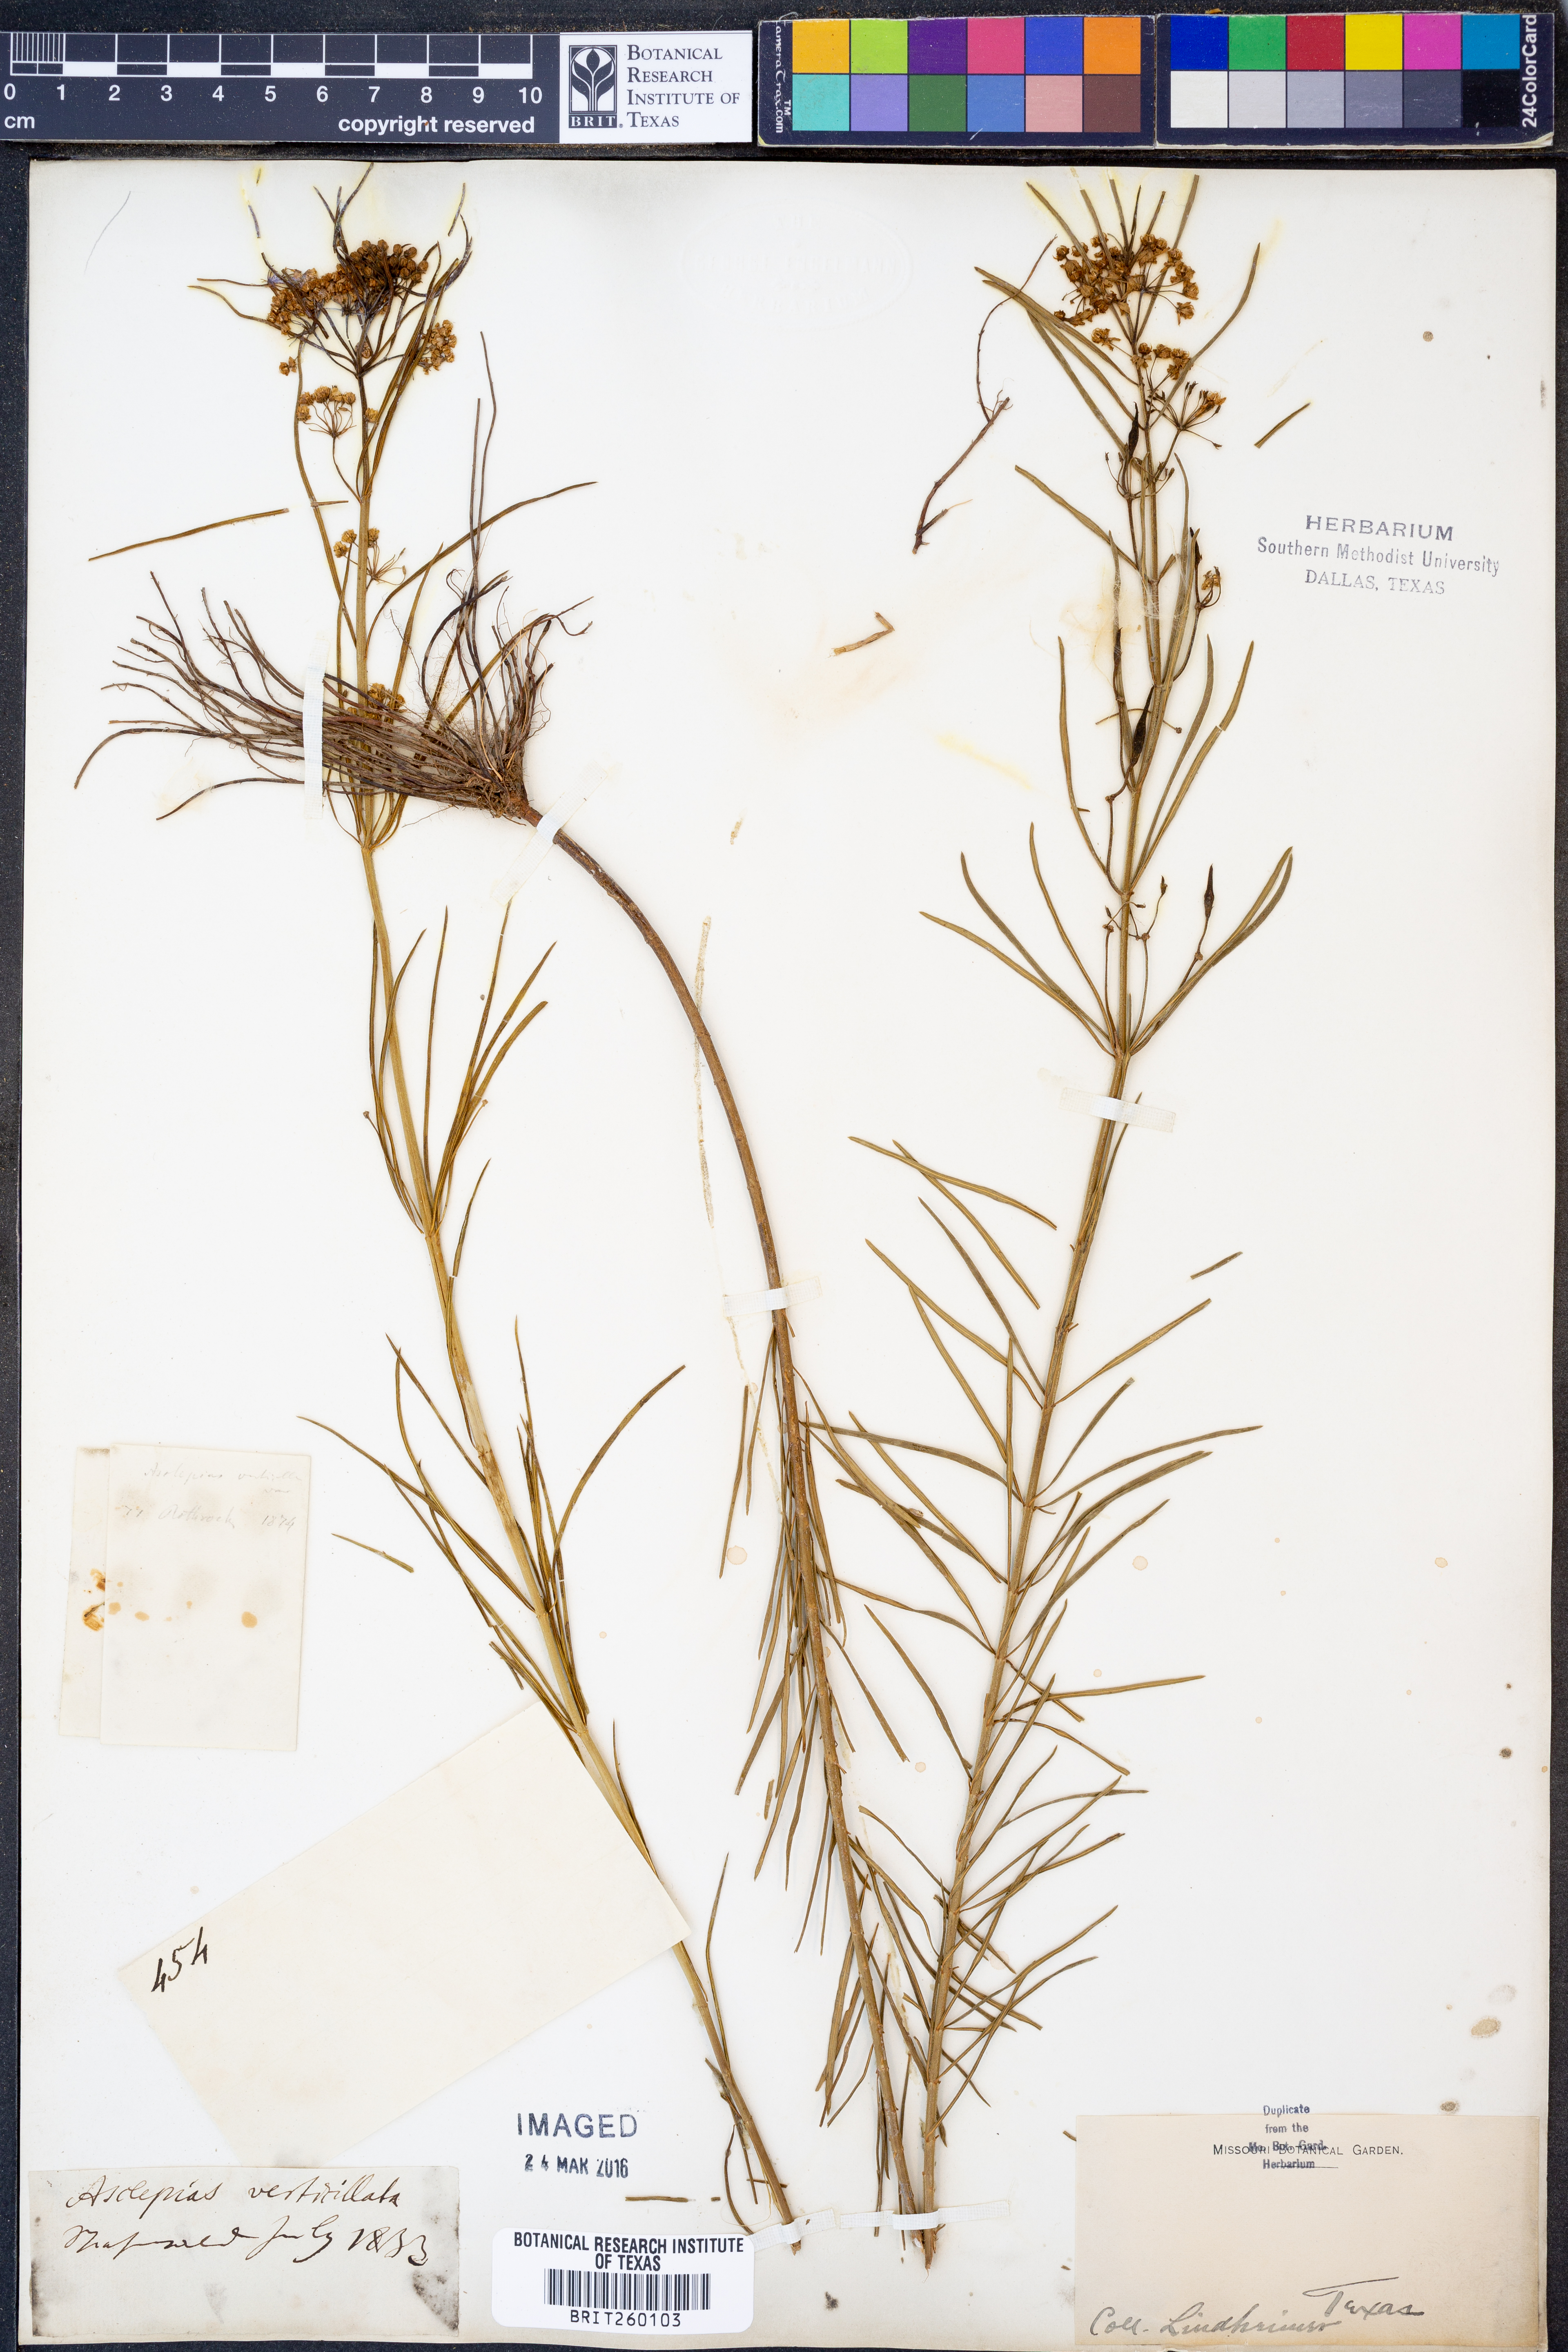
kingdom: Plantae
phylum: Tracheophyta
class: Magnoliopsida
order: Gentianales
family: Apocynaceae
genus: Asclepias
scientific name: Asclepias verticillata
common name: Eastern whorled milkweed
